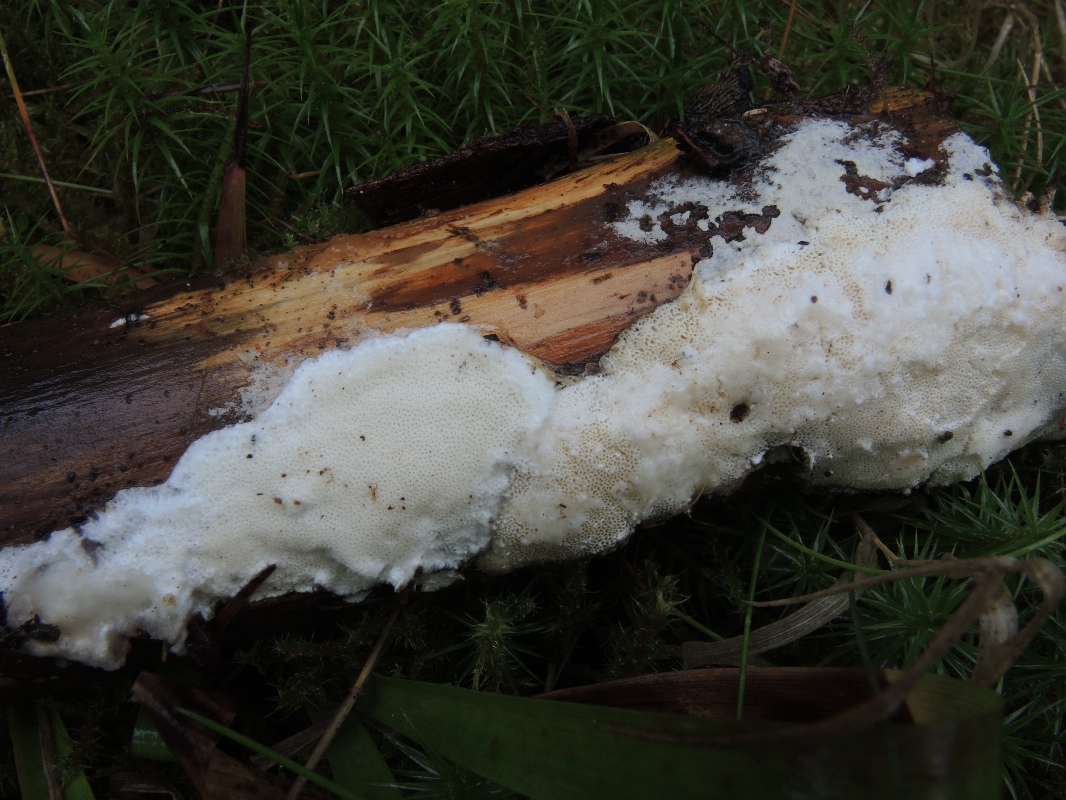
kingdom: Fungi
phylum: Basidiomycota
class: Agaricomycetes
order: Polyporales
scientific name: Polyporales
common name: poresvampordenen
